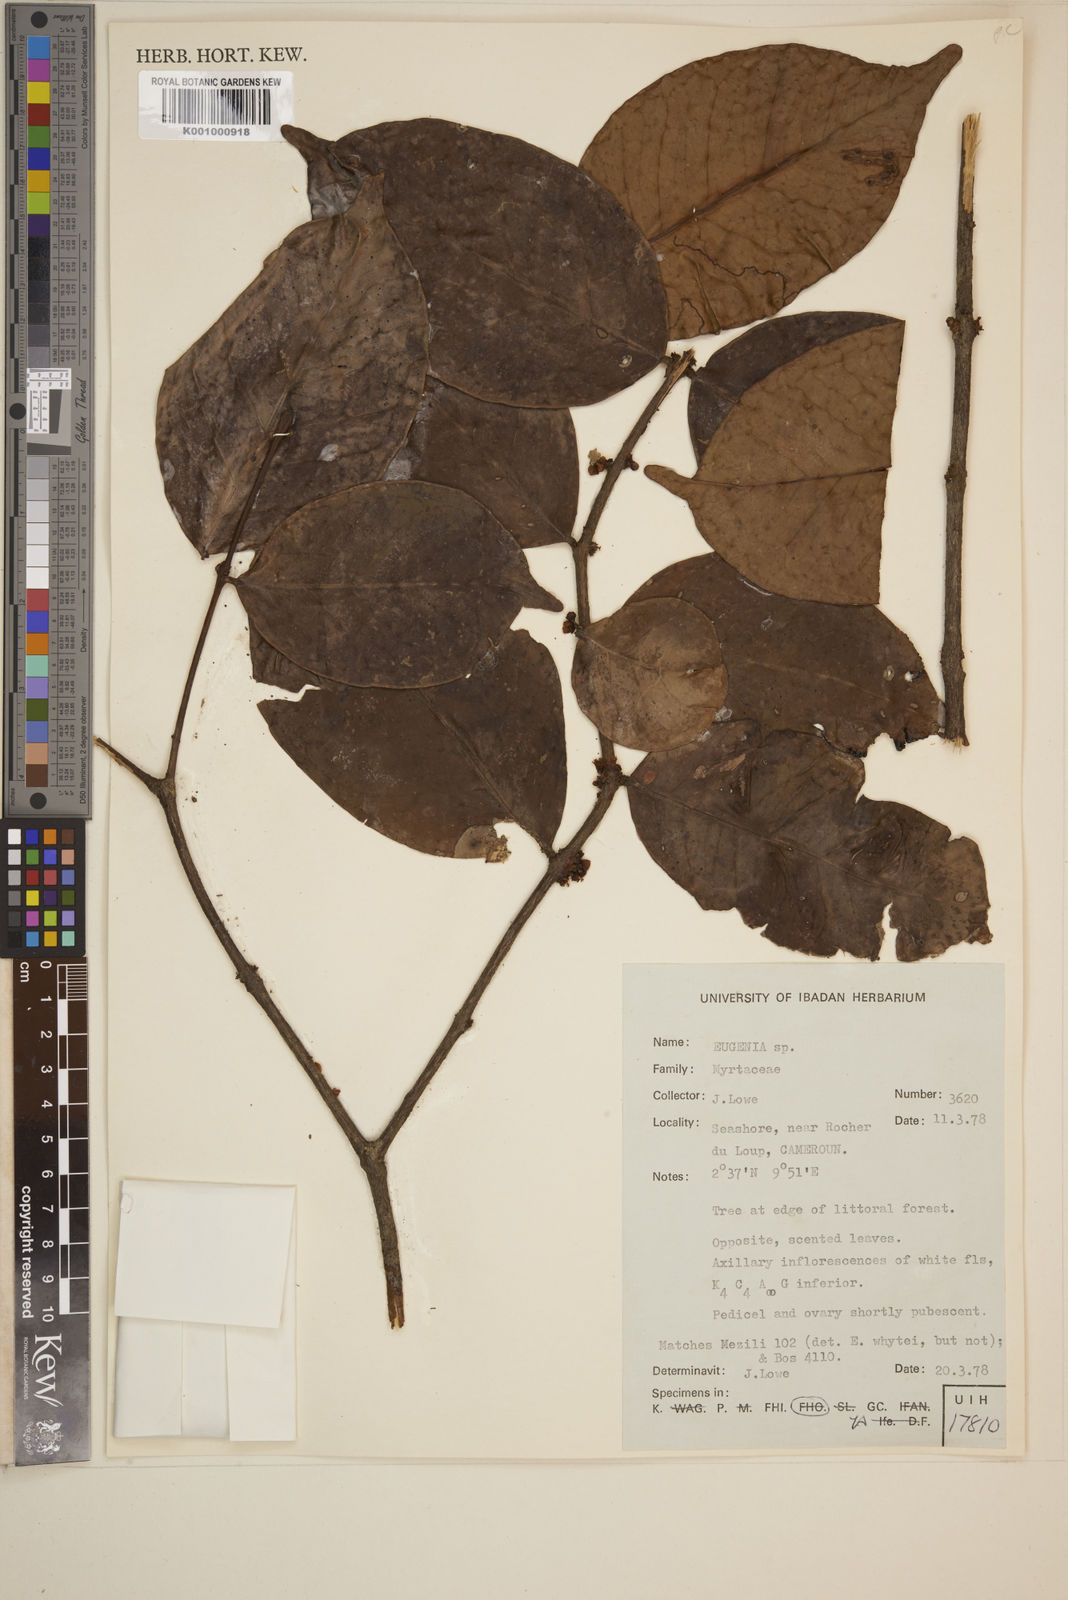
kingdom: Plantae
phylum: Tracheophyta
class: Magnoliopsida
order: Myrtales
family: Myrtaceae
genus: Eugenia
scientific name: Eugenia
